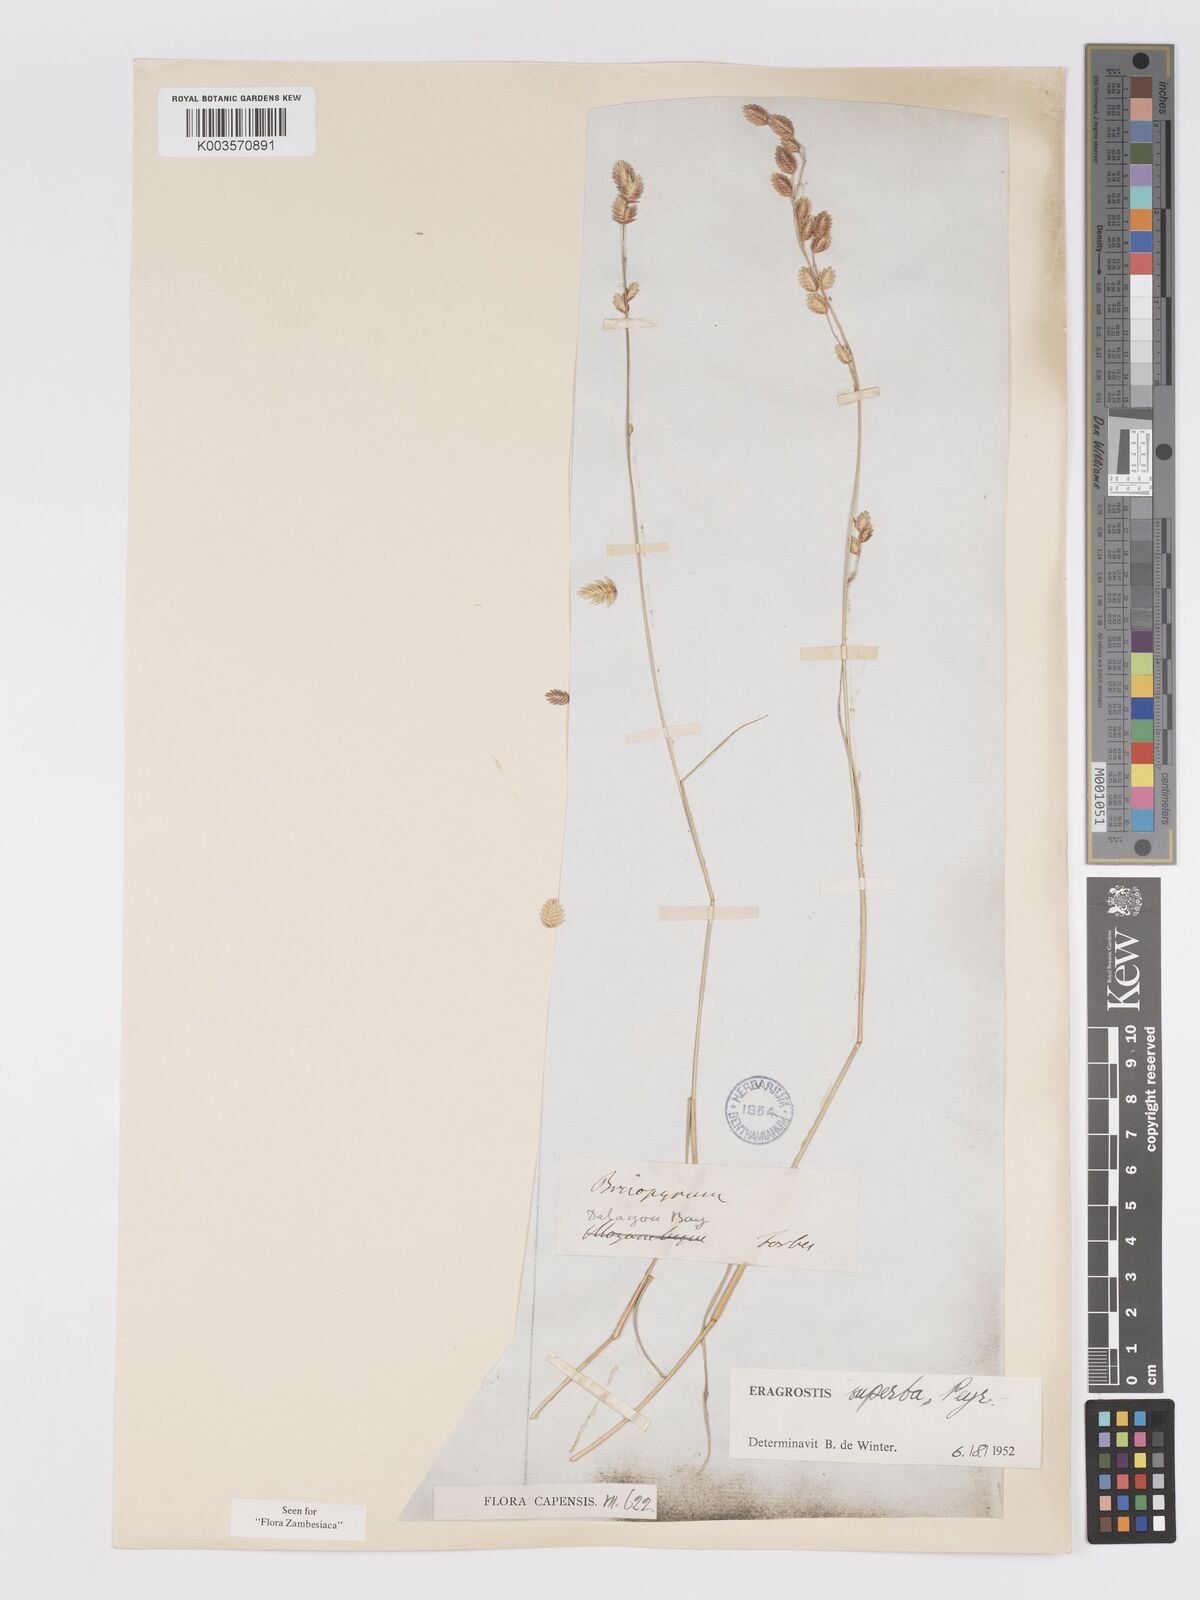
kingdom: Plantae
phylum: Tracheophyta
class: Liliopsida
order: Poales
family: Poaceae
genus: Eragrostis
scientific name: Eragrostis superba
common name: Wilman lovegrass
